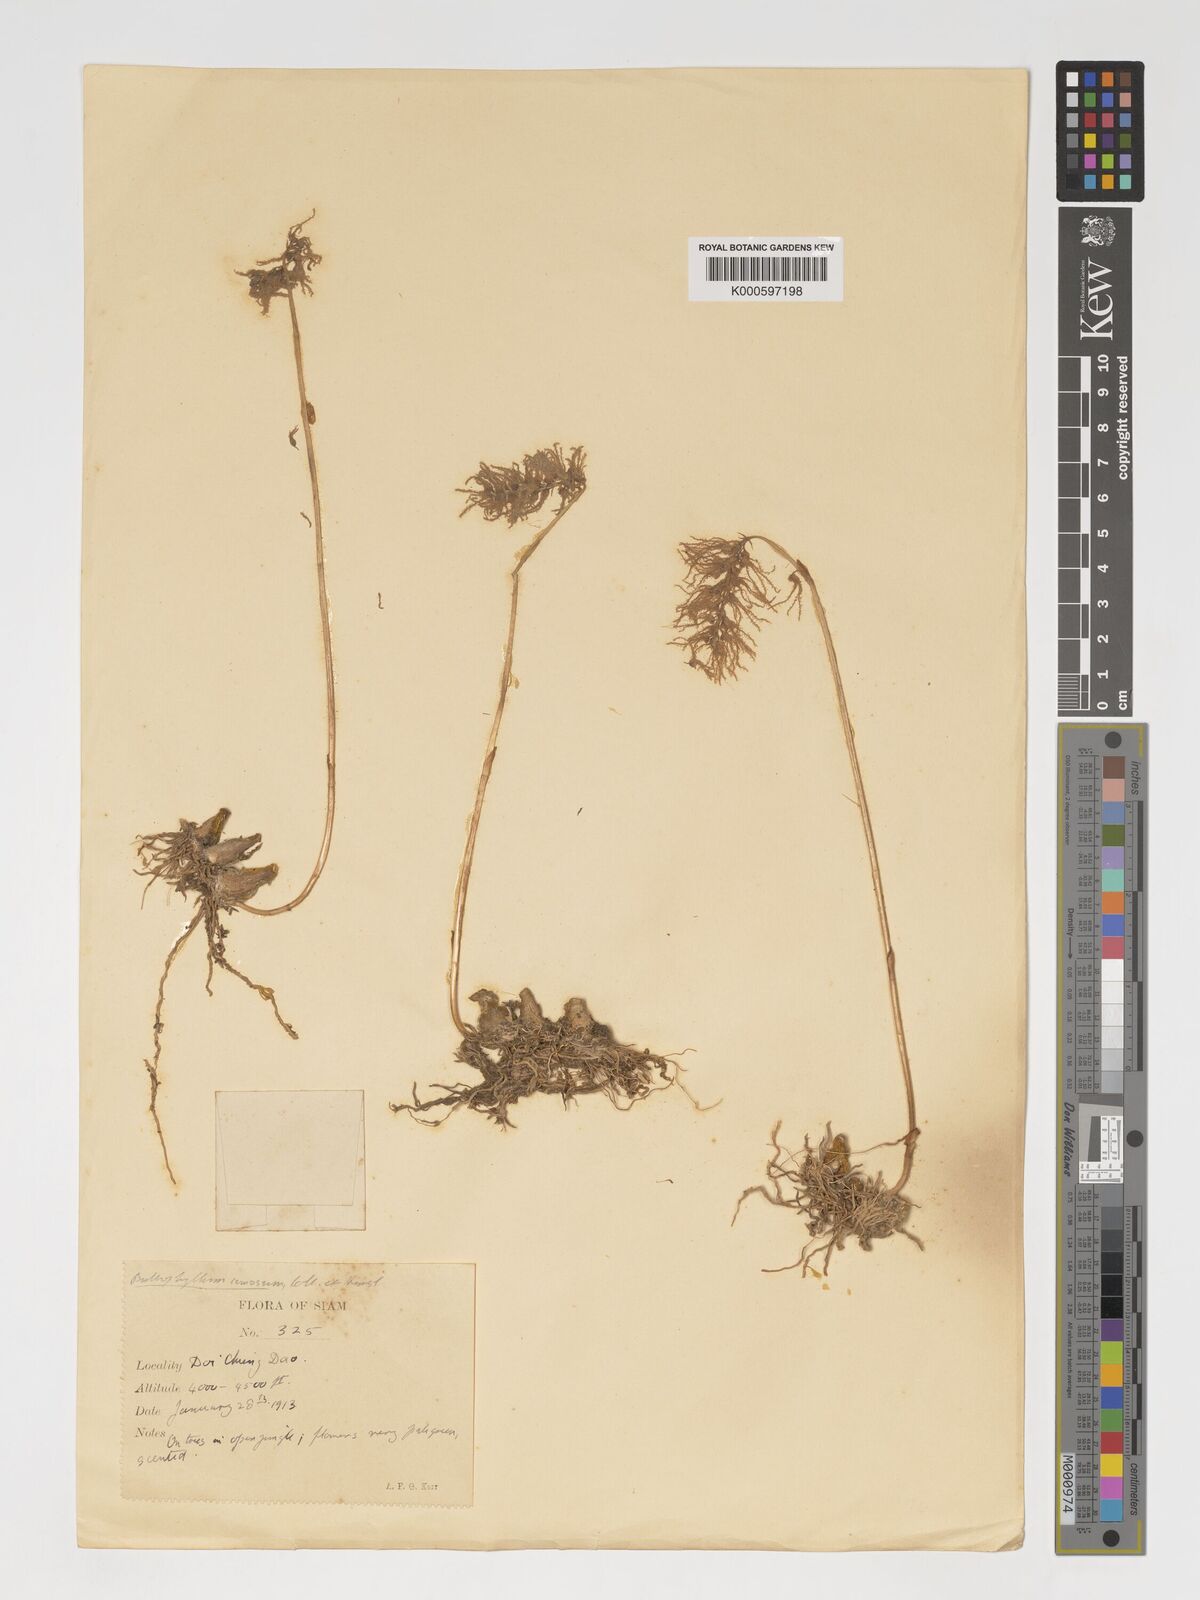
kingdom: Plantae
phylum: Tracheophyta
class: Liliopsida
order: Asparagales
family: Orchidaceae
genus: Bulbophyllum
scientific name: Bulbophyllum comosum
